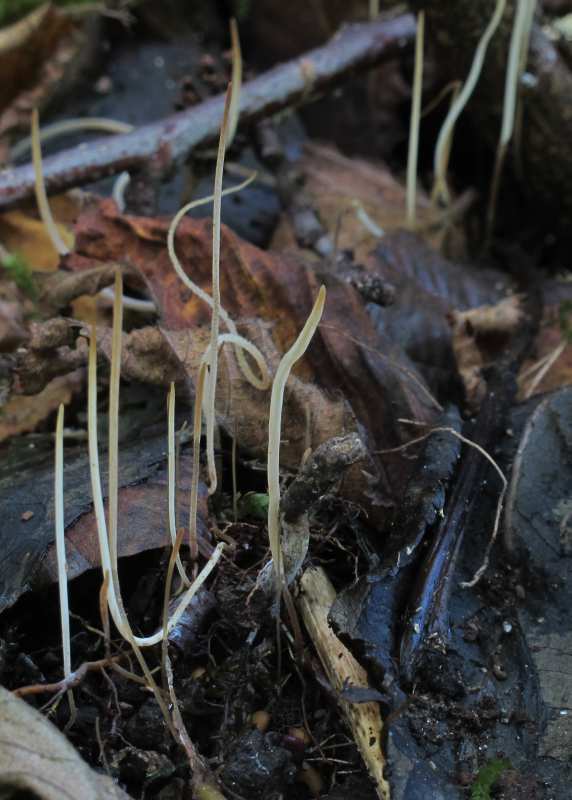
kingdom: Fungi
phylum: Basidiomycota
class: Agaricomycetes
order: Agaricales
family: Typhulaceae
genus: Typhula
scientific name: Typhula juncea
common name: trådagtig rørkølle
